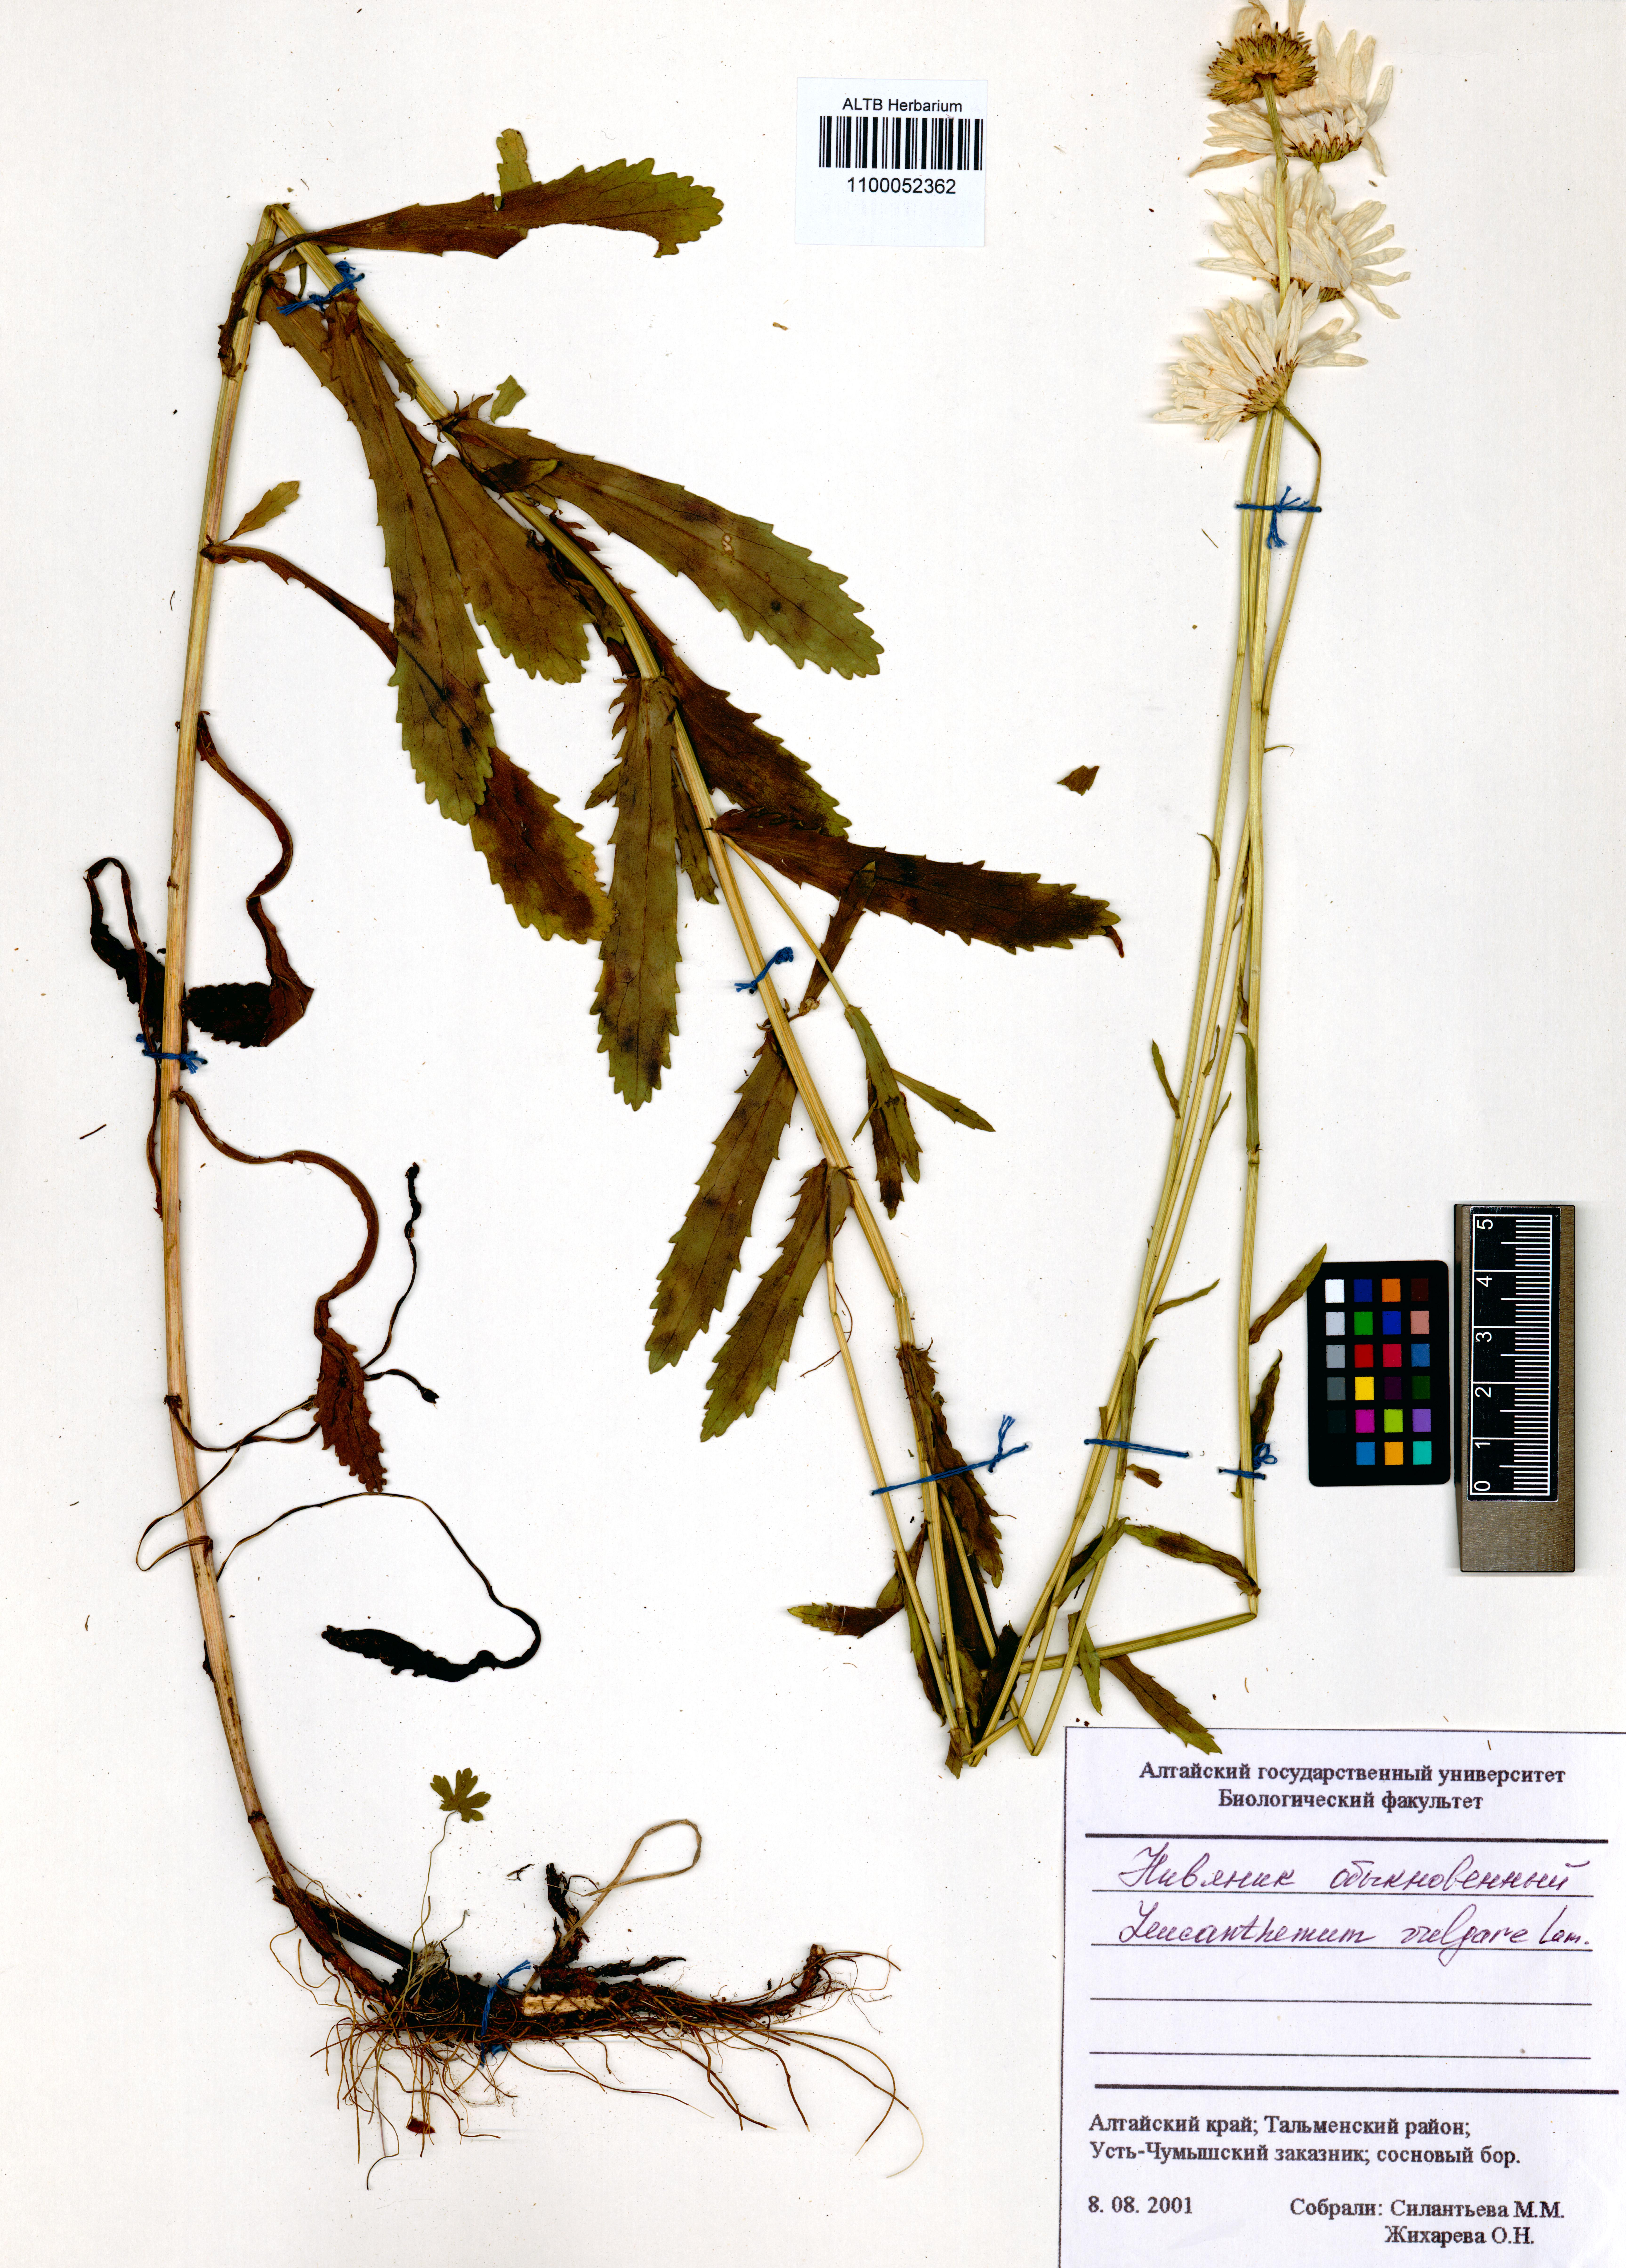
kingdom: Plantae
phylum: Tracheophyta
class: Magnoliopsida
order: Asterales
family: Asteraceae
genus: Leucanthemum
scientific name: Leucanthemum vulgare
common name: Oxeye daisy
